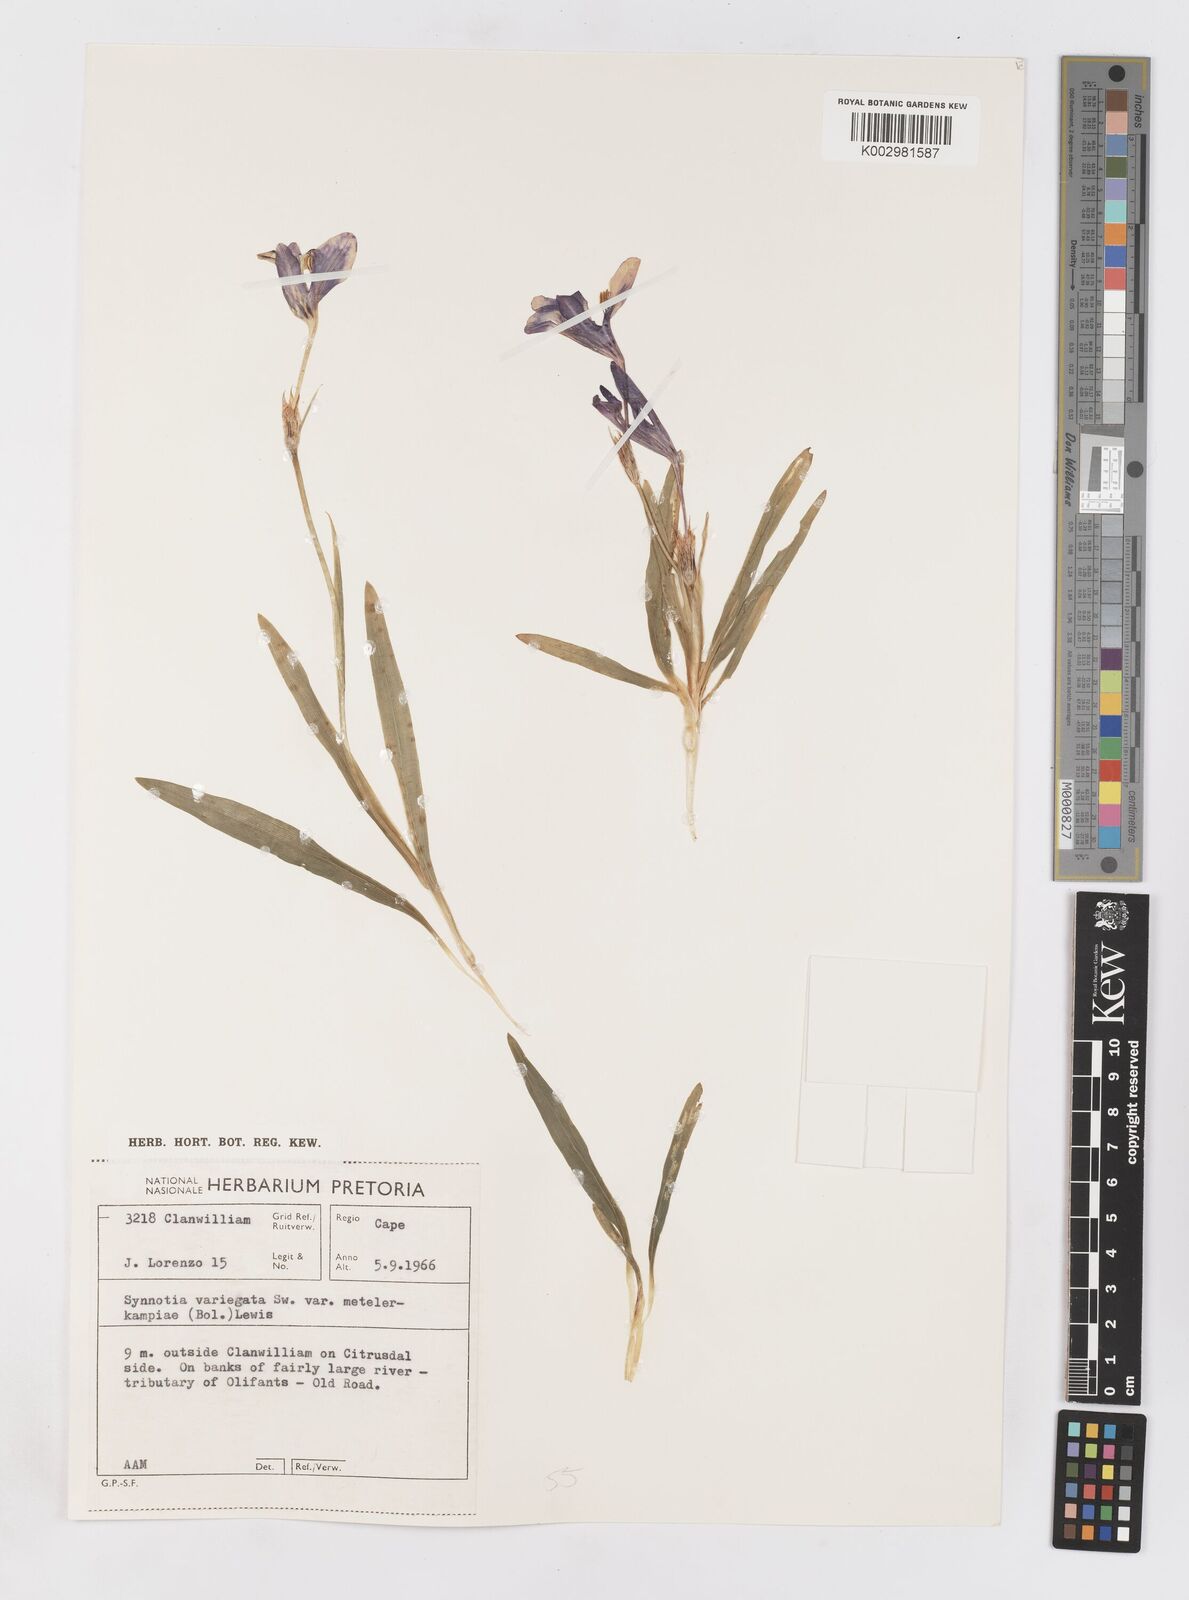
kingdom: Plantae
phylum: Tracheophyta
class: Liliopsida
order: Asparagales
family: Iridaceae
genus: Sparaxis
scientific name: Sparaxis metelerkampiae
